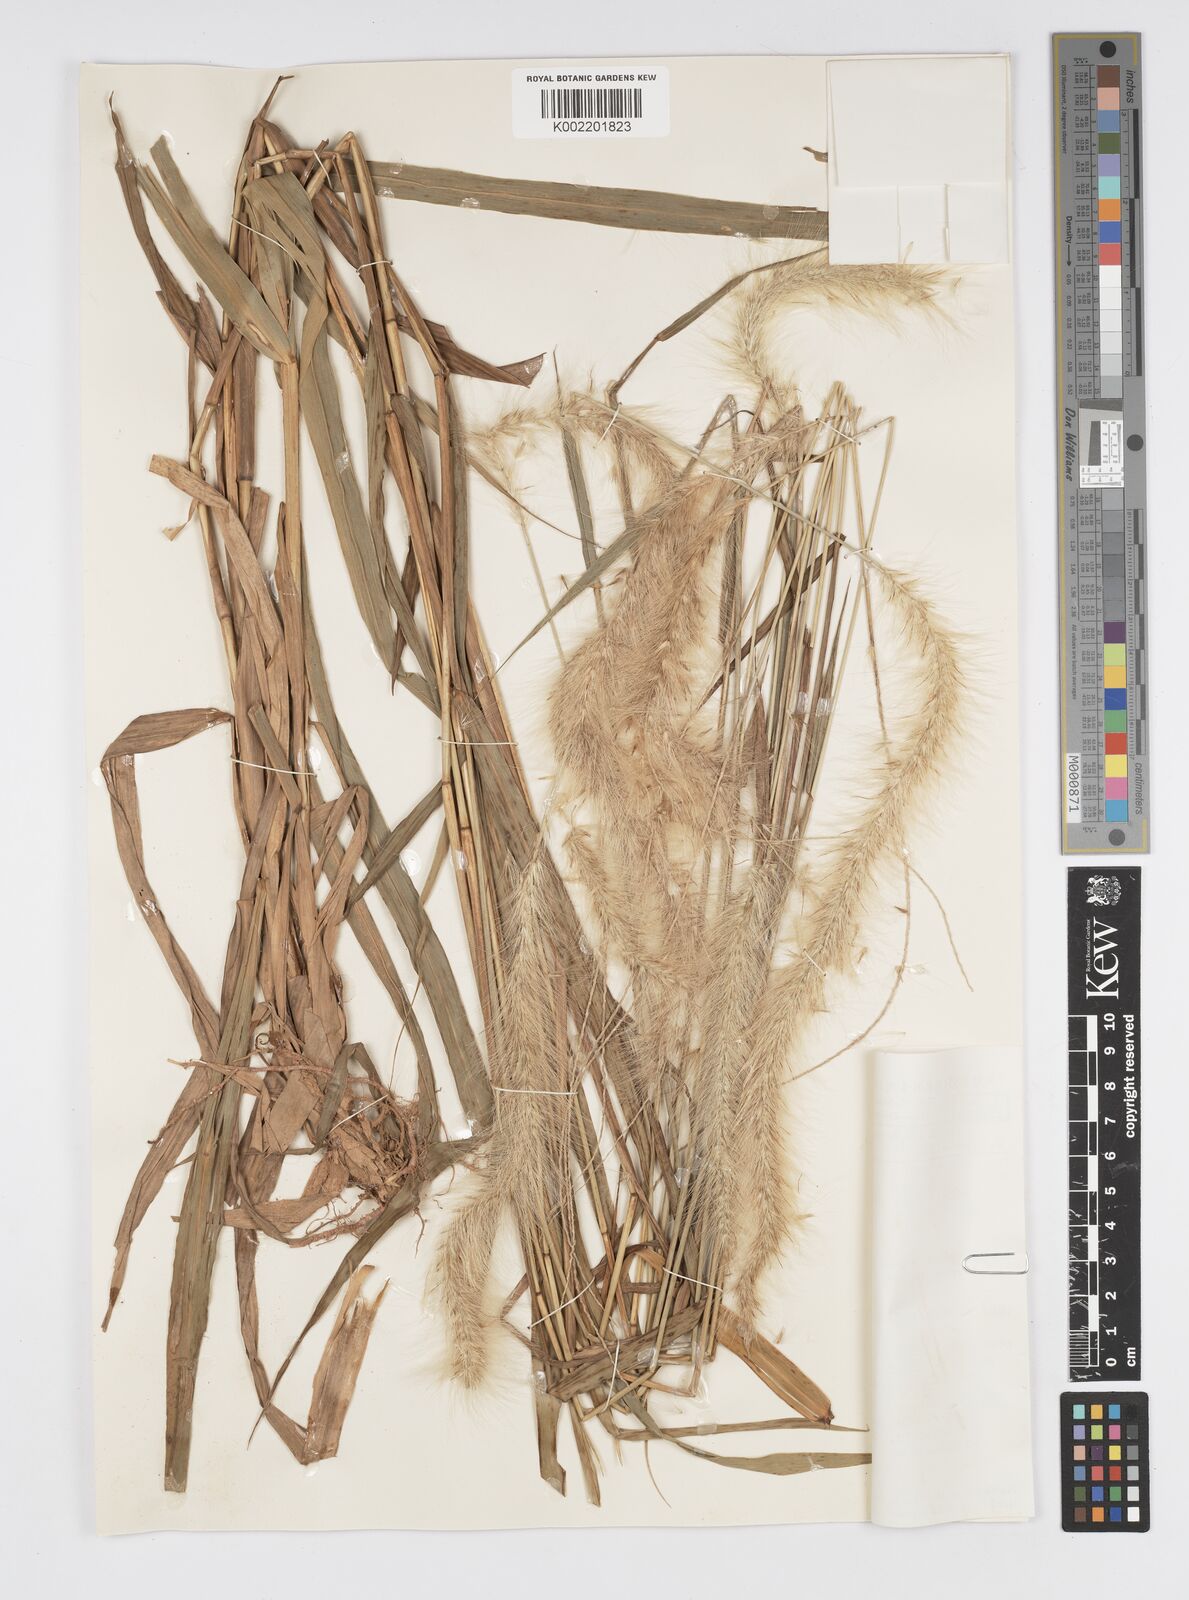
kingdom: Plantae
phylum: Tracheophyta
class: Liliopsida
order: Poales
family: Poaceae
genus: Cenchrus
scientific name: Cenchrus purpureus
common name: Elephant grass
